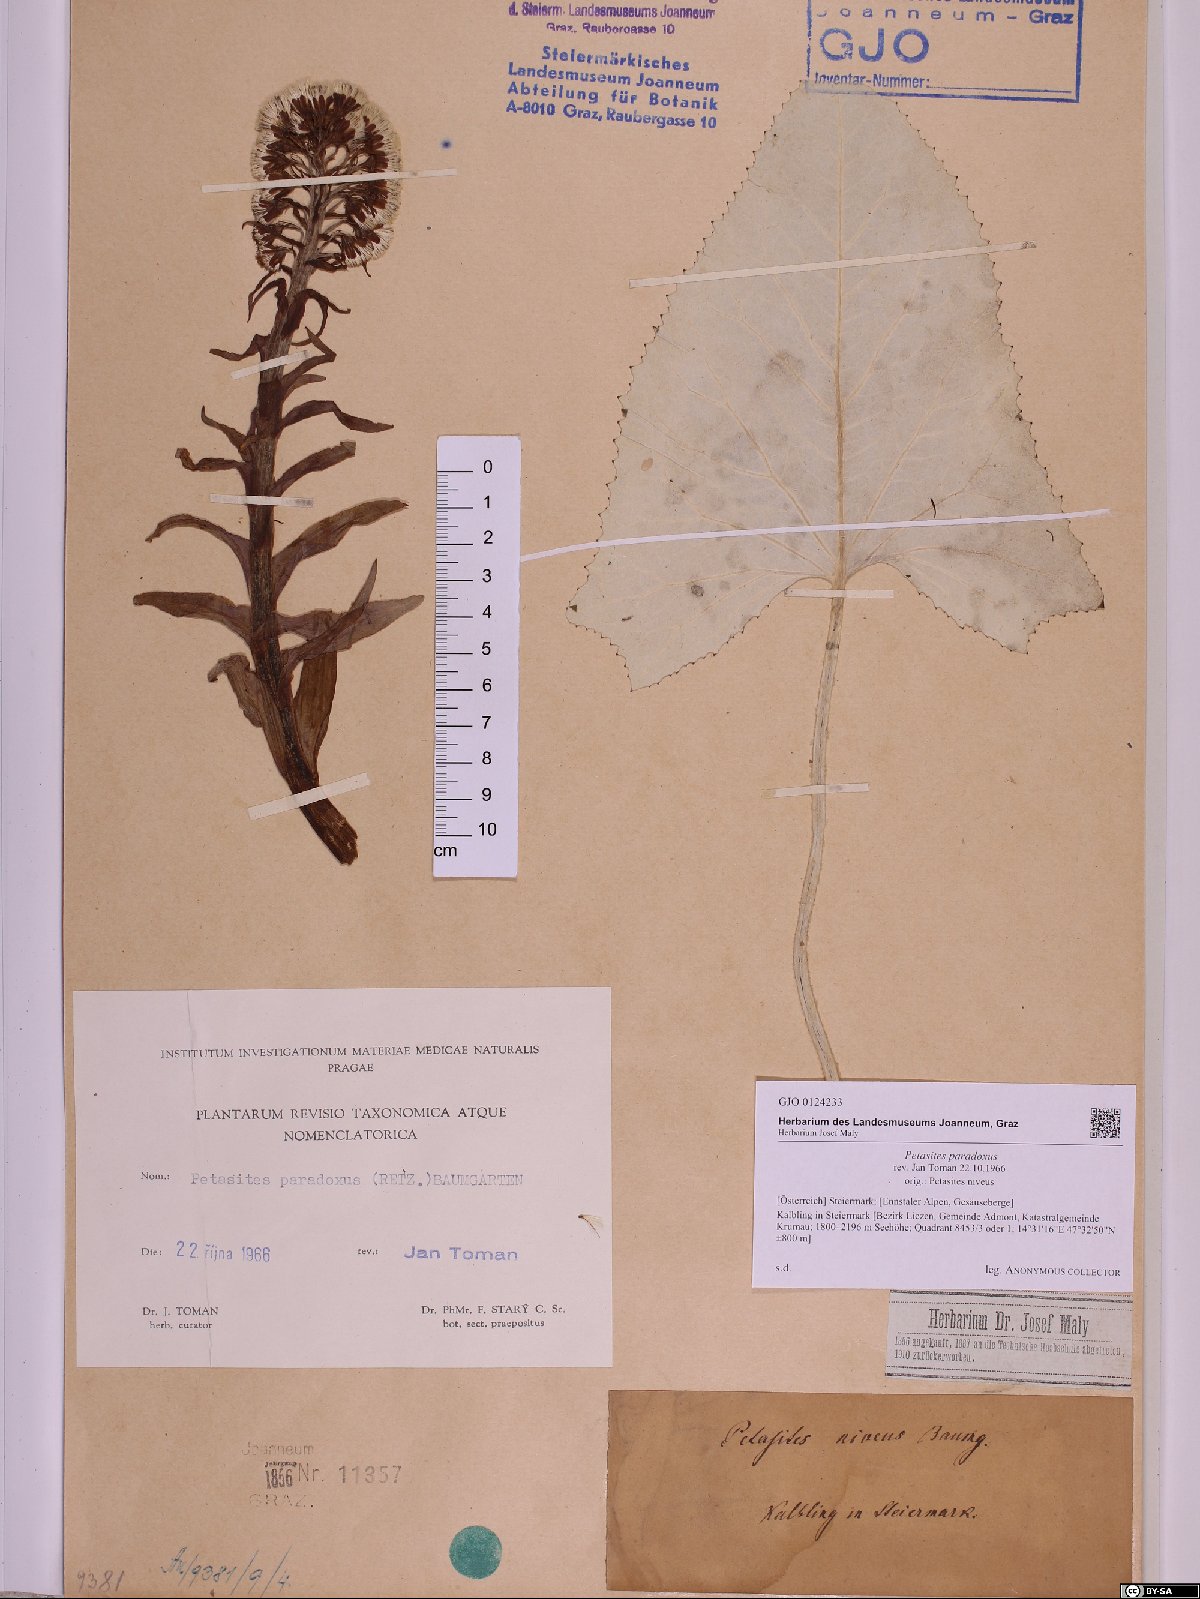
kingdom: Plantae
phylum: Tracheophyta
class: Magnoliopsida
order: Asterales
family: Asteraceae
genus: Petasites
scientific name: Petasites paradoxus
